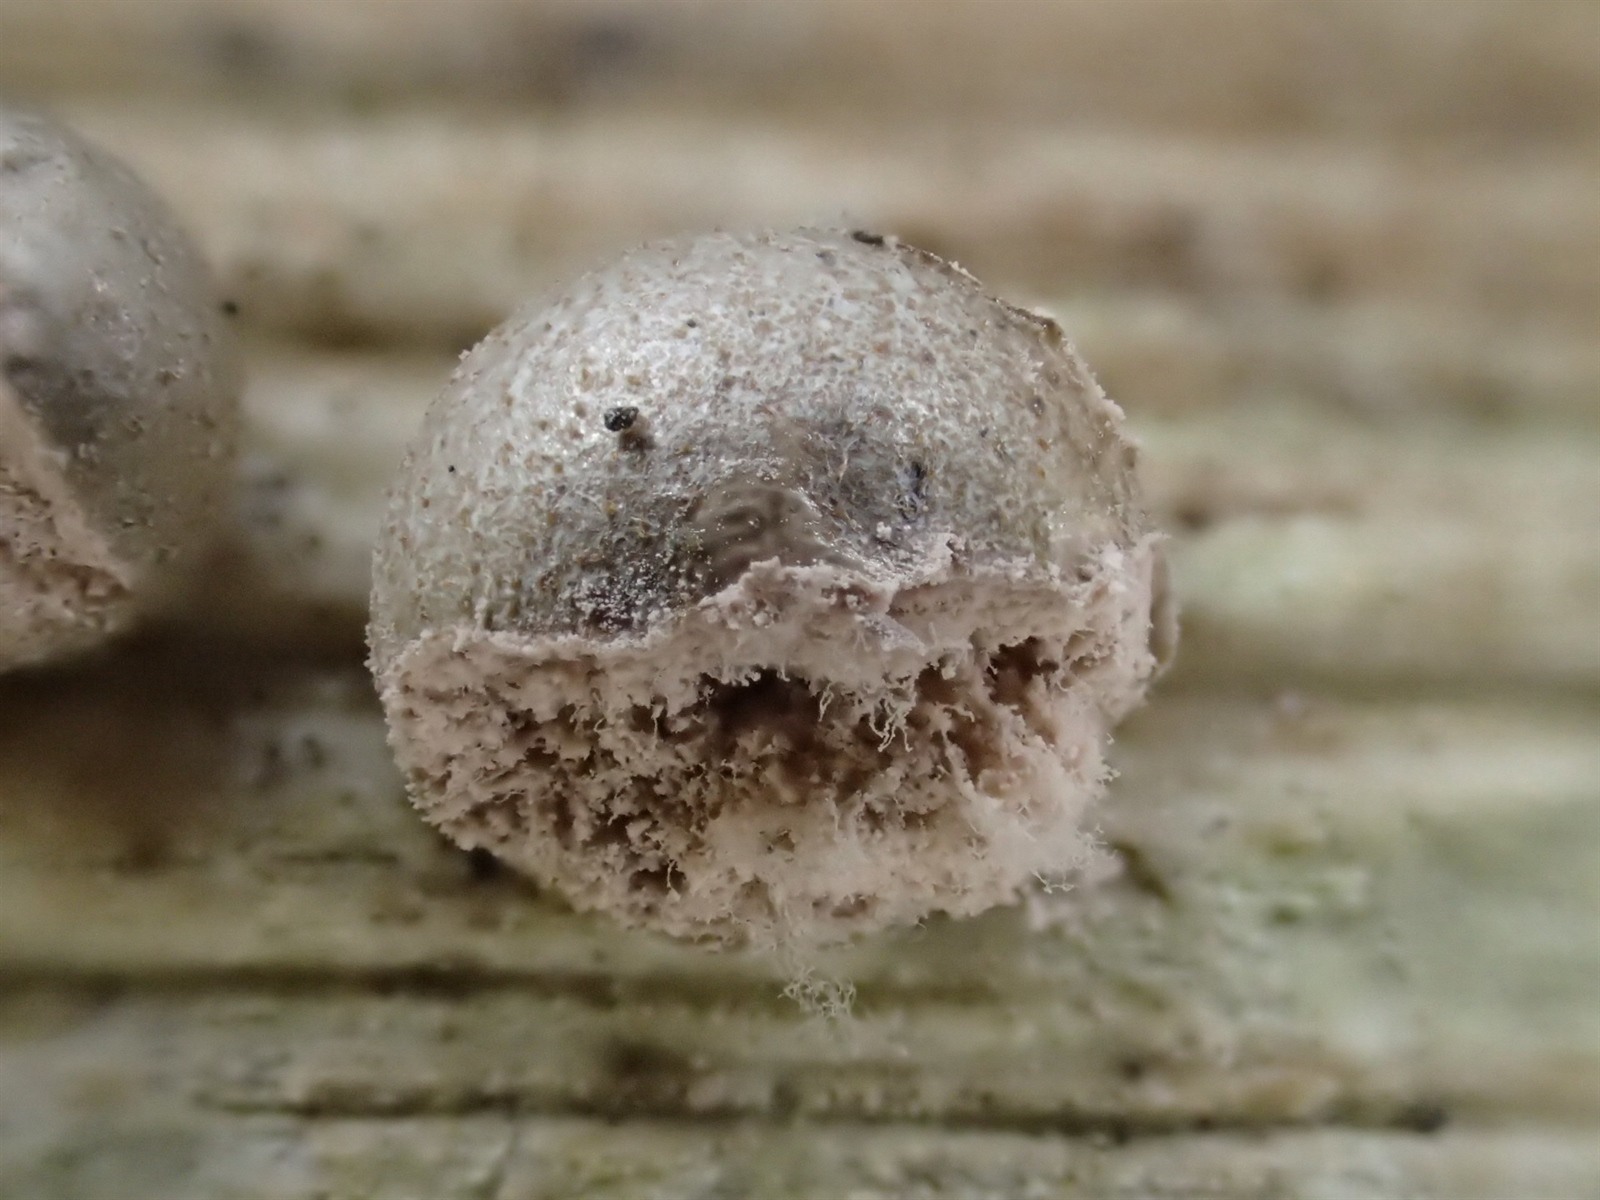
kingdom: Protozoa
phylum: Mycetozoa
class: Myxomycetes
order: Cribrariales
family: Tubiferaceae
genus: Lycogala
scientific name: Lycogala
